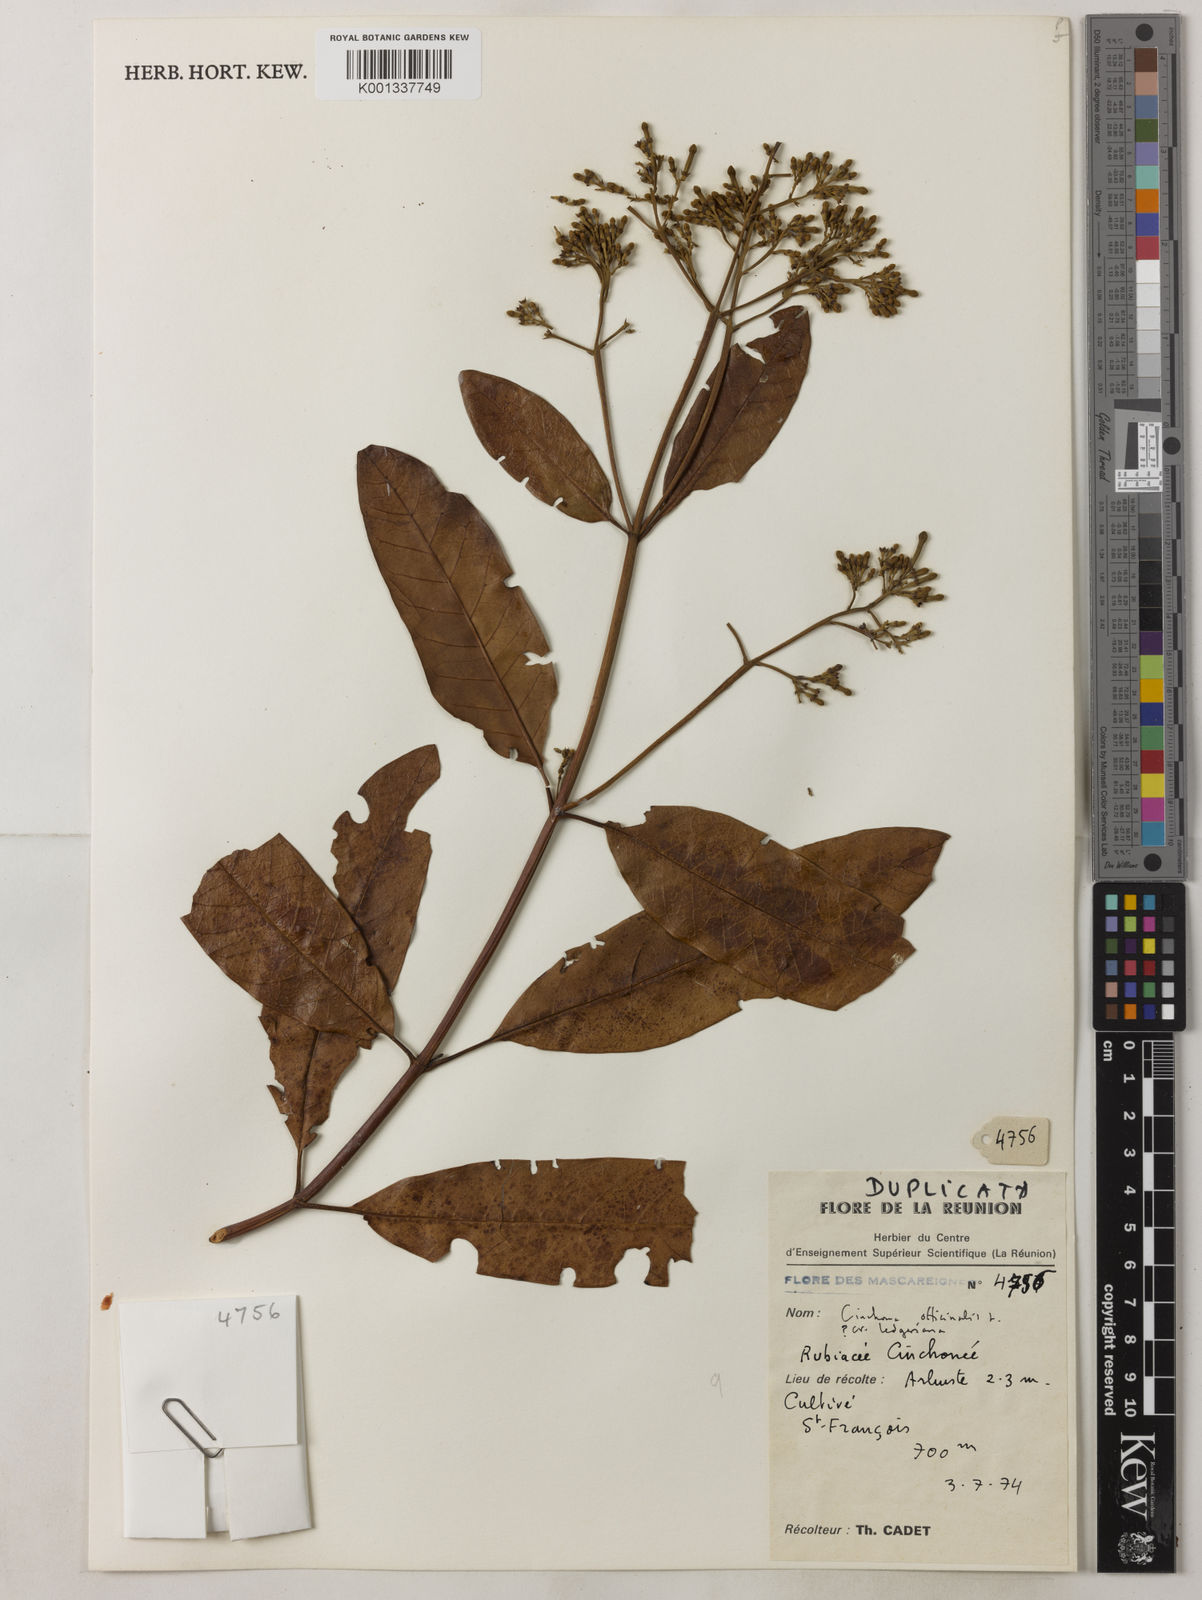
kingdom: Plantae
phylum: Tracheophyta
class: Magnoliopsida
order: Gentianales
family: Rubiaceae
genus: Cinchona
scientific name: Cinchona calisaya
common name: Ledgerbark
